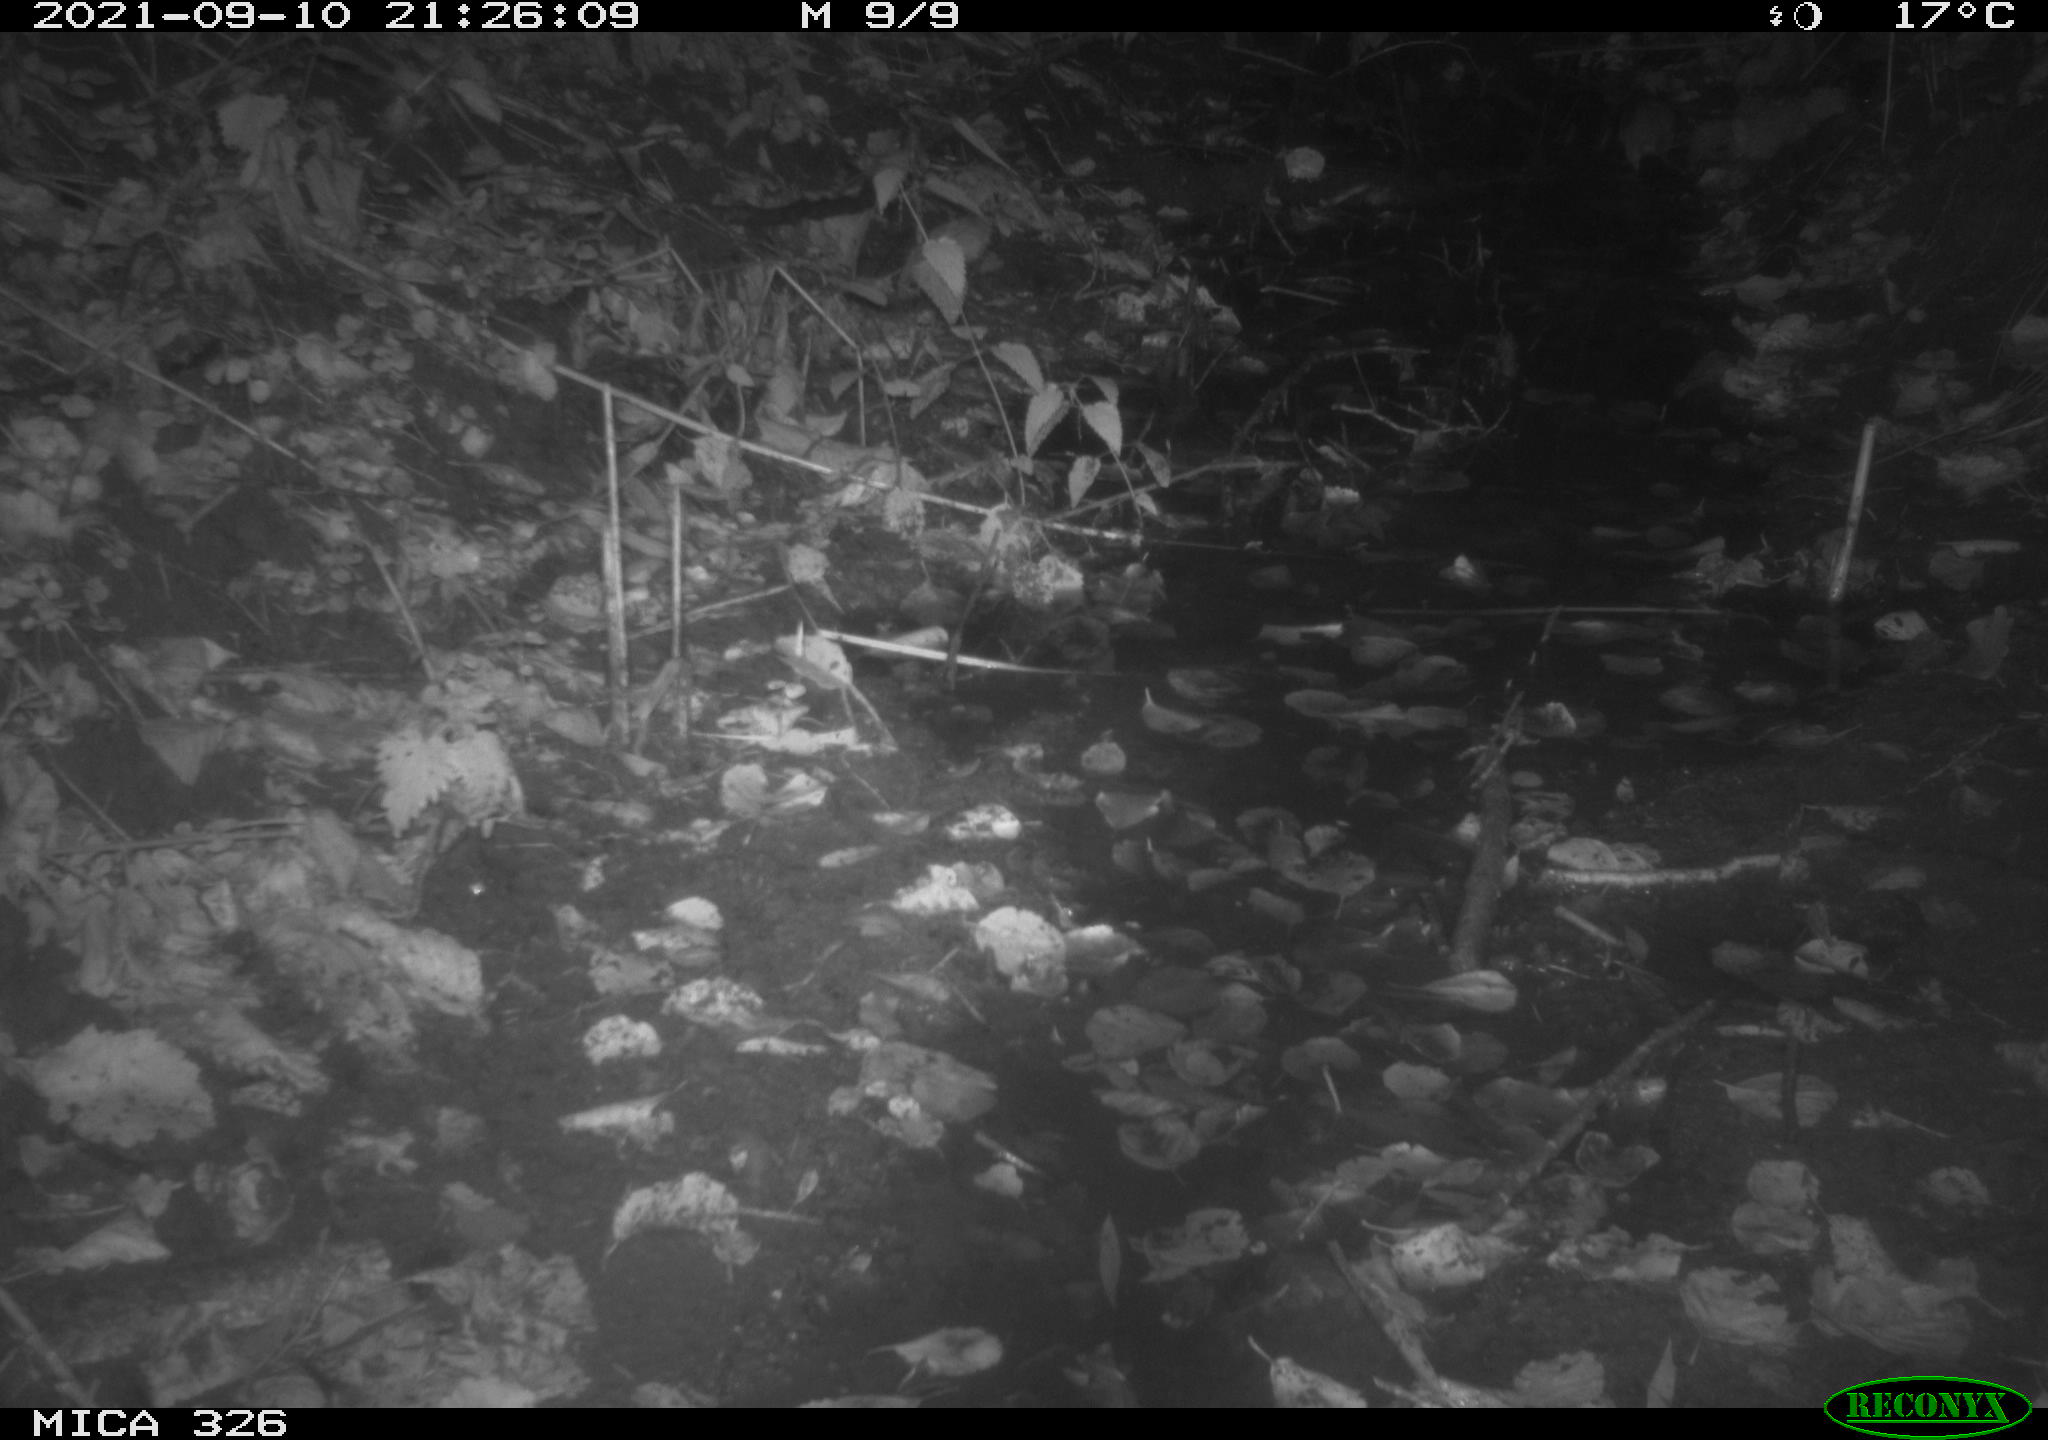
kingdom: Animalia
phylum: Chordata
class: Mammalia
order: Rodentia
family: Muridae
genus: Rattus
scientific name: Rattus norvegicus
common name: Brown rat
